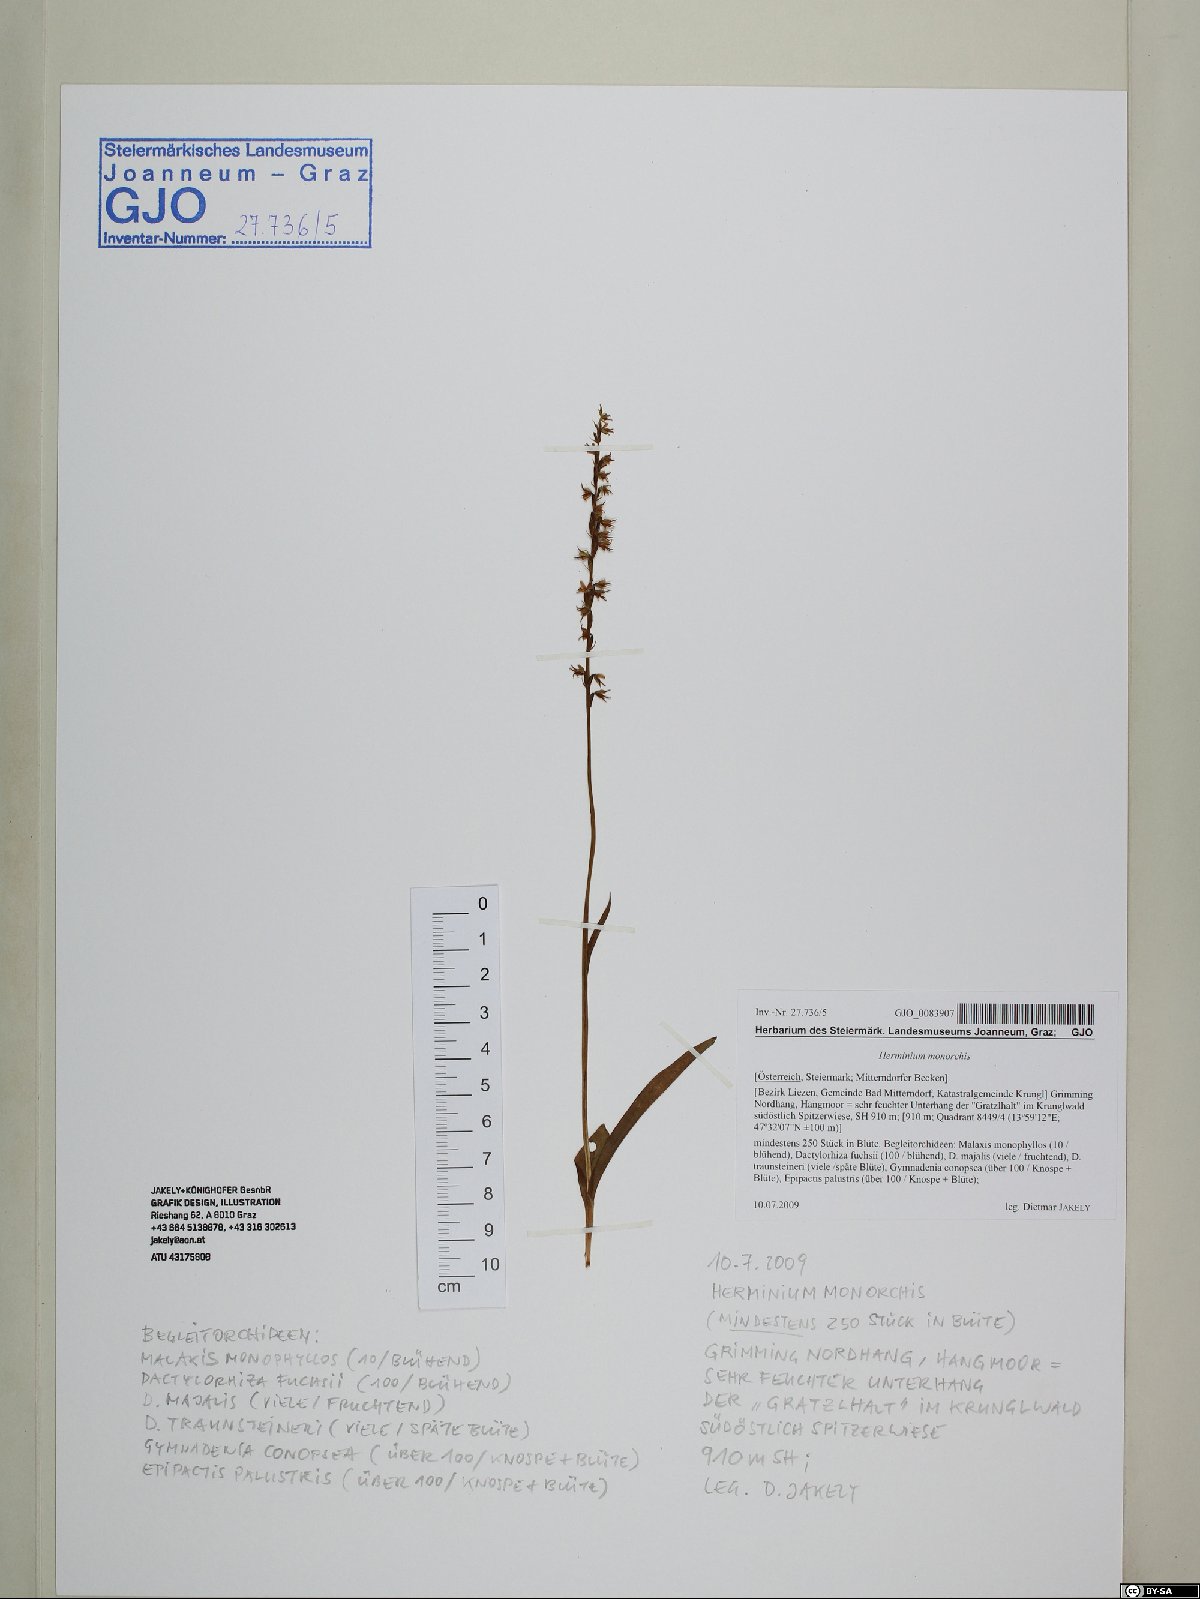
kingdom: Plantae
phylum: Tracheophyta
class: Liliopsida
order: Asparagales
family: Orchidaceae
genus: Herminium
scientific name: Herminium monorchis
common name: Musk orchid
